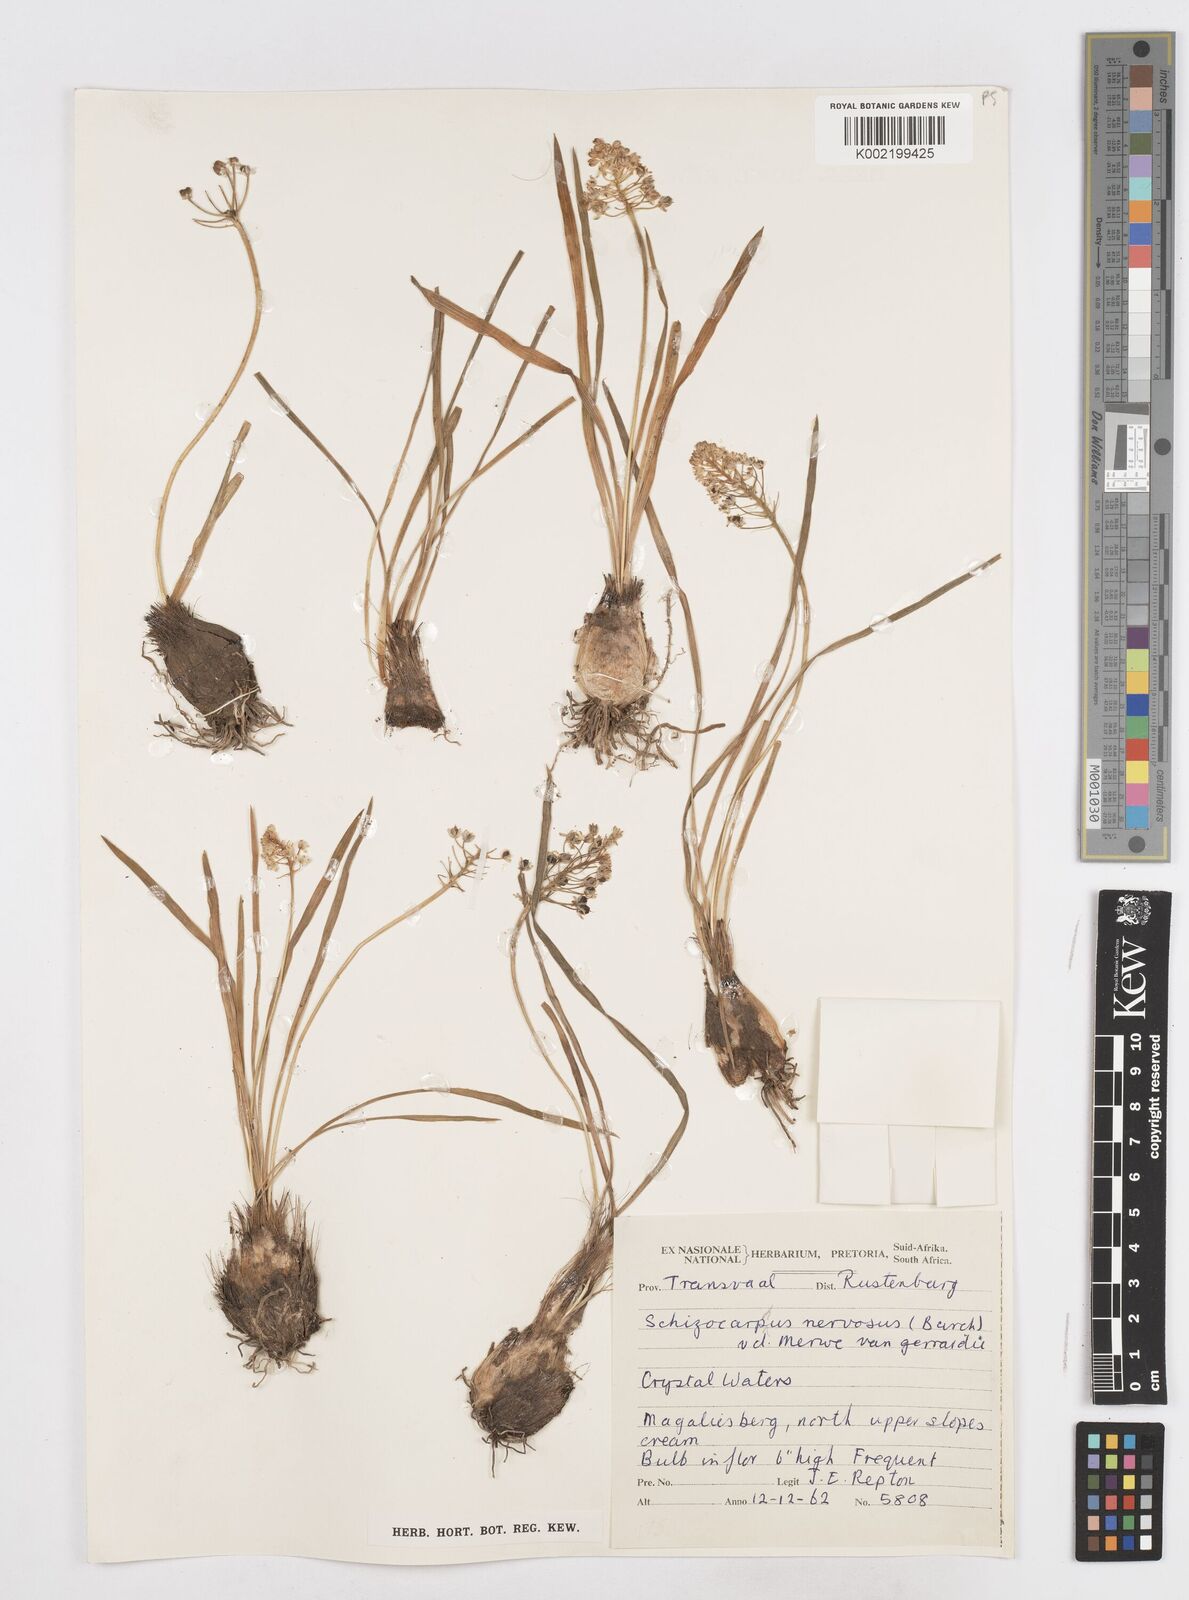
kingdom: Plantae
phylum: Tracheophyta
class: Liliopsida
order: Asparagales
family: Asparagaceae
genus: Schizocarphus
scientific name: Schizocarphus nervosus
